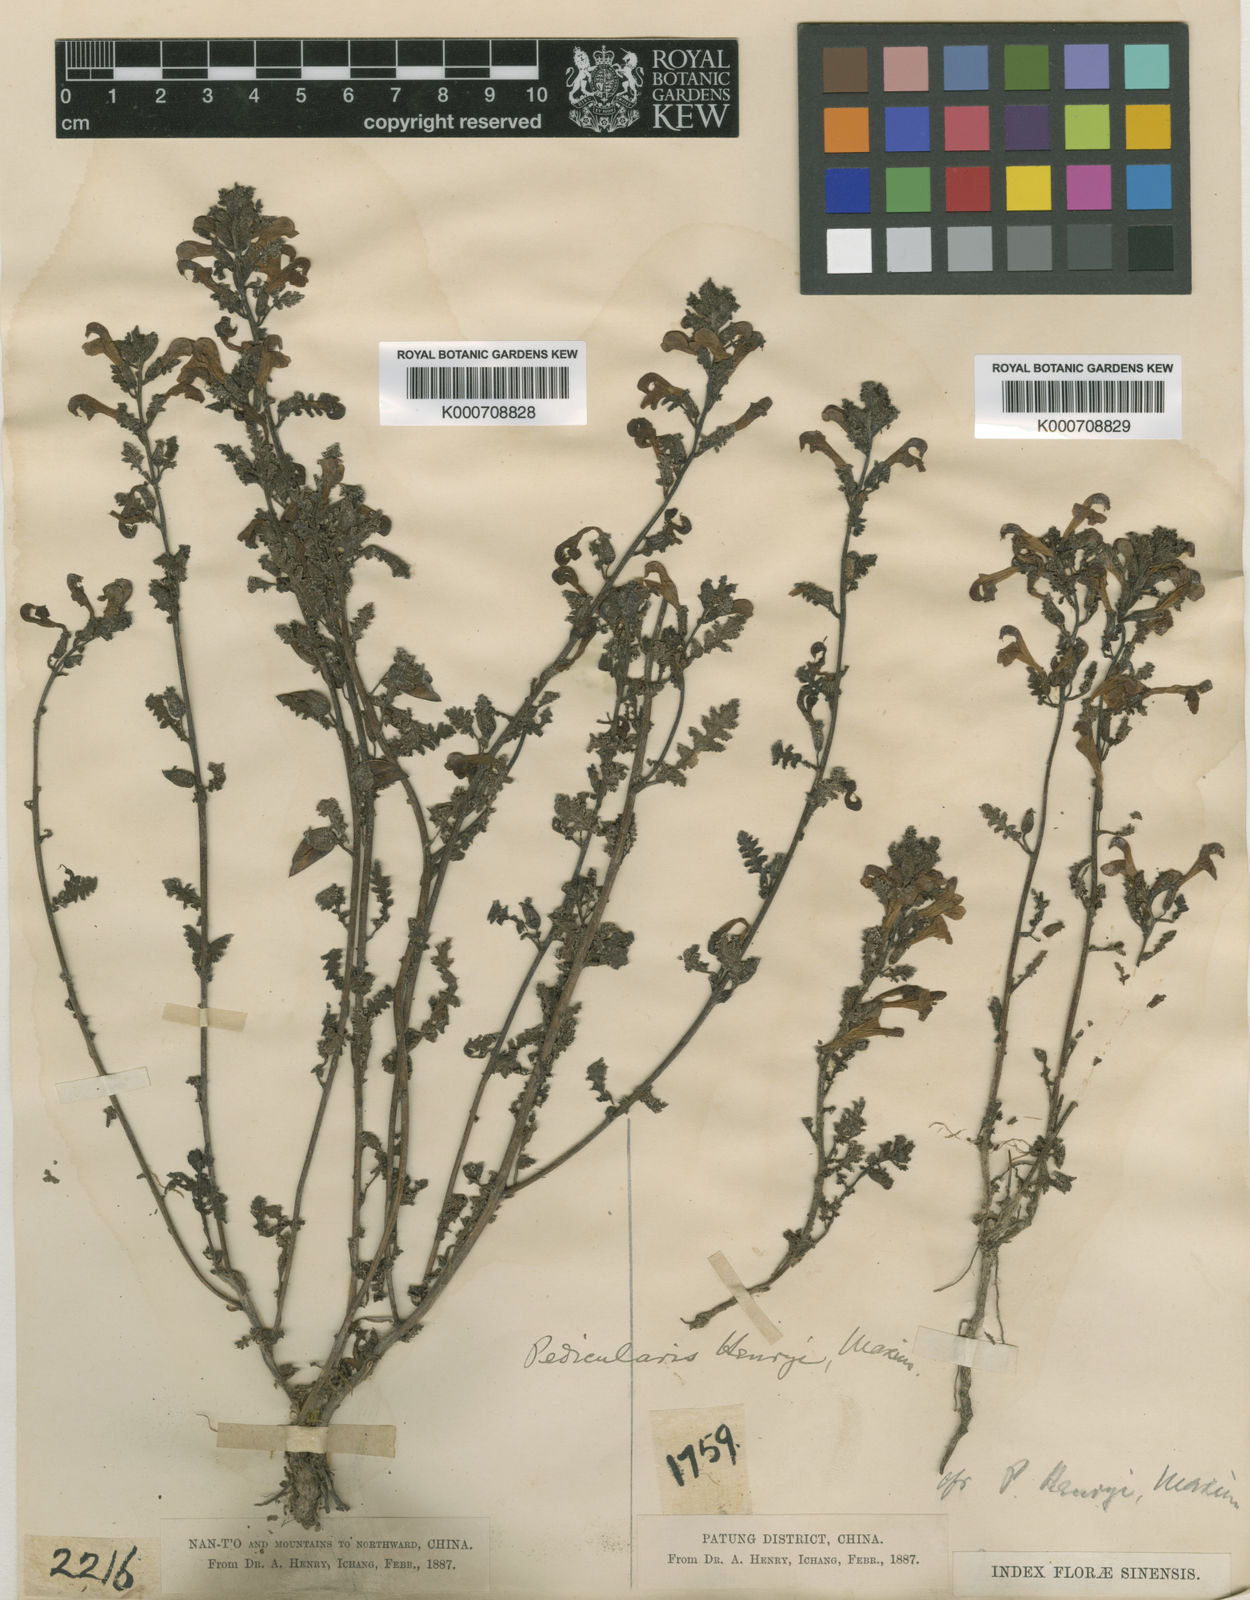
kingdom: Plantae
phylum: Tracheophyta
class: Magnoliopsida
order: Lamiales
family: Orobanchaceae
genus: Pedicularis
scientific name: Pedicularis
